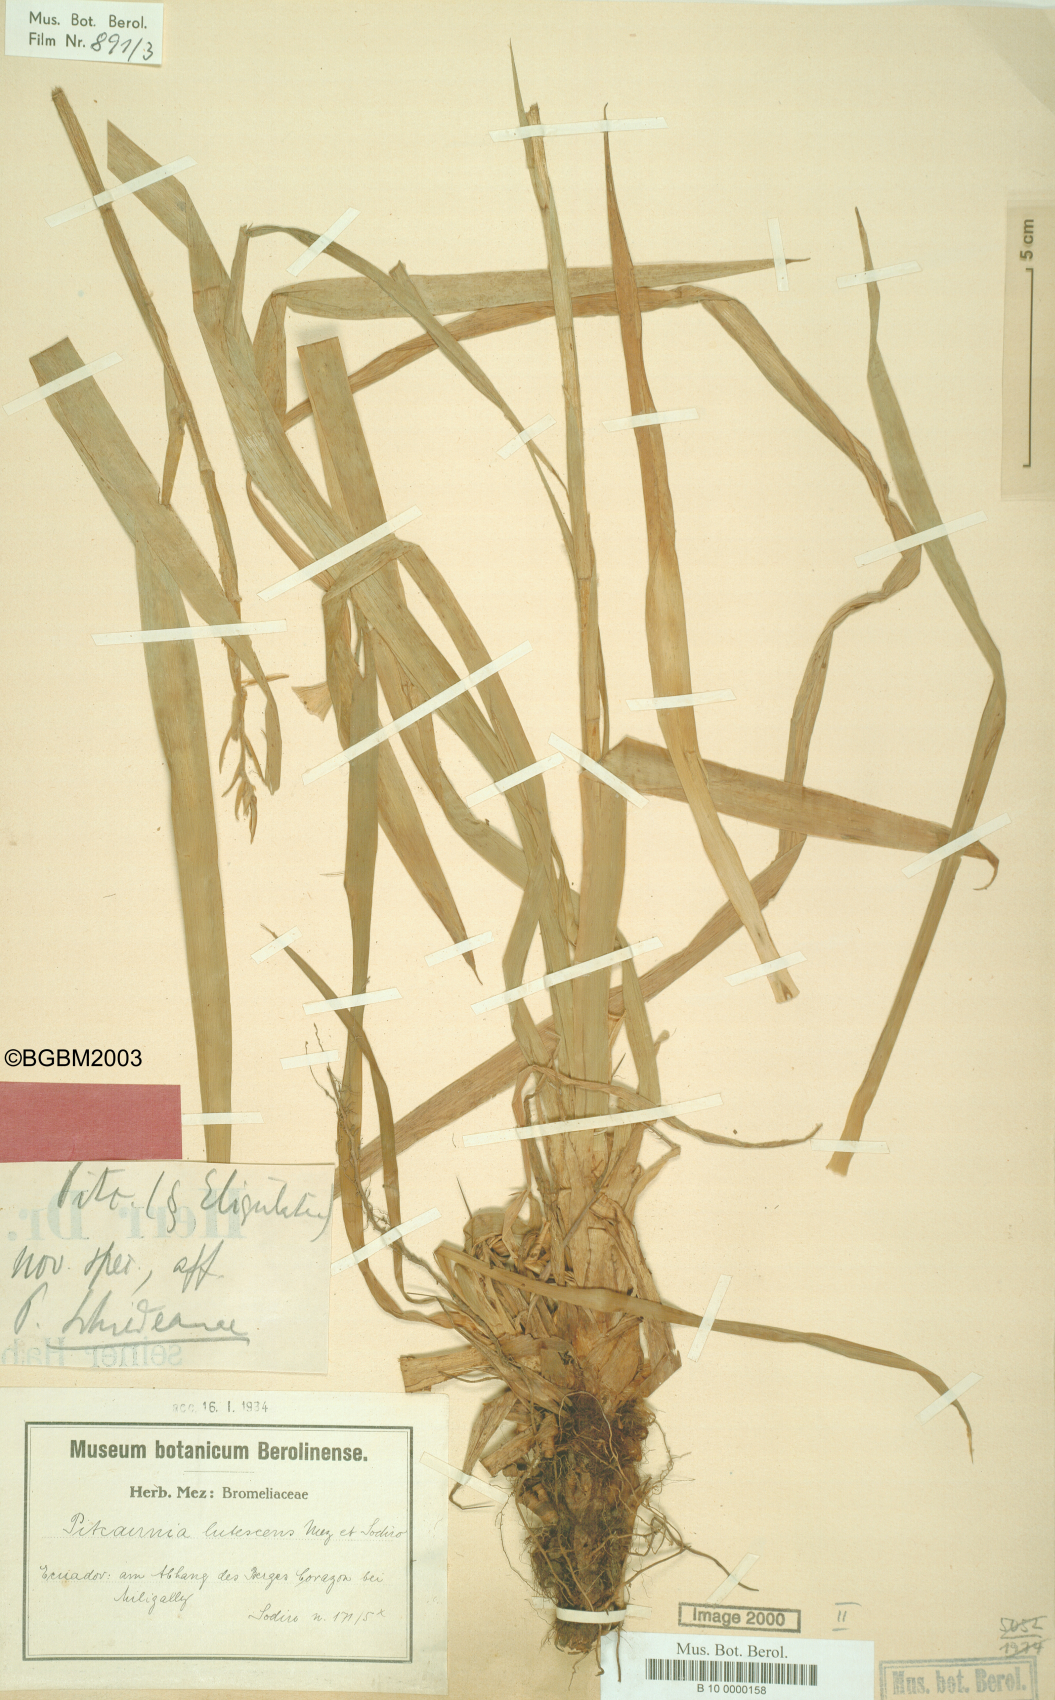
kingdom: Plantae
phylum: Tracheophyta
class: Liliopsida
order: Poales
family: Bromeliaceae
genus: Pitcairnia
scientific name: Pitcairnia lutescens
